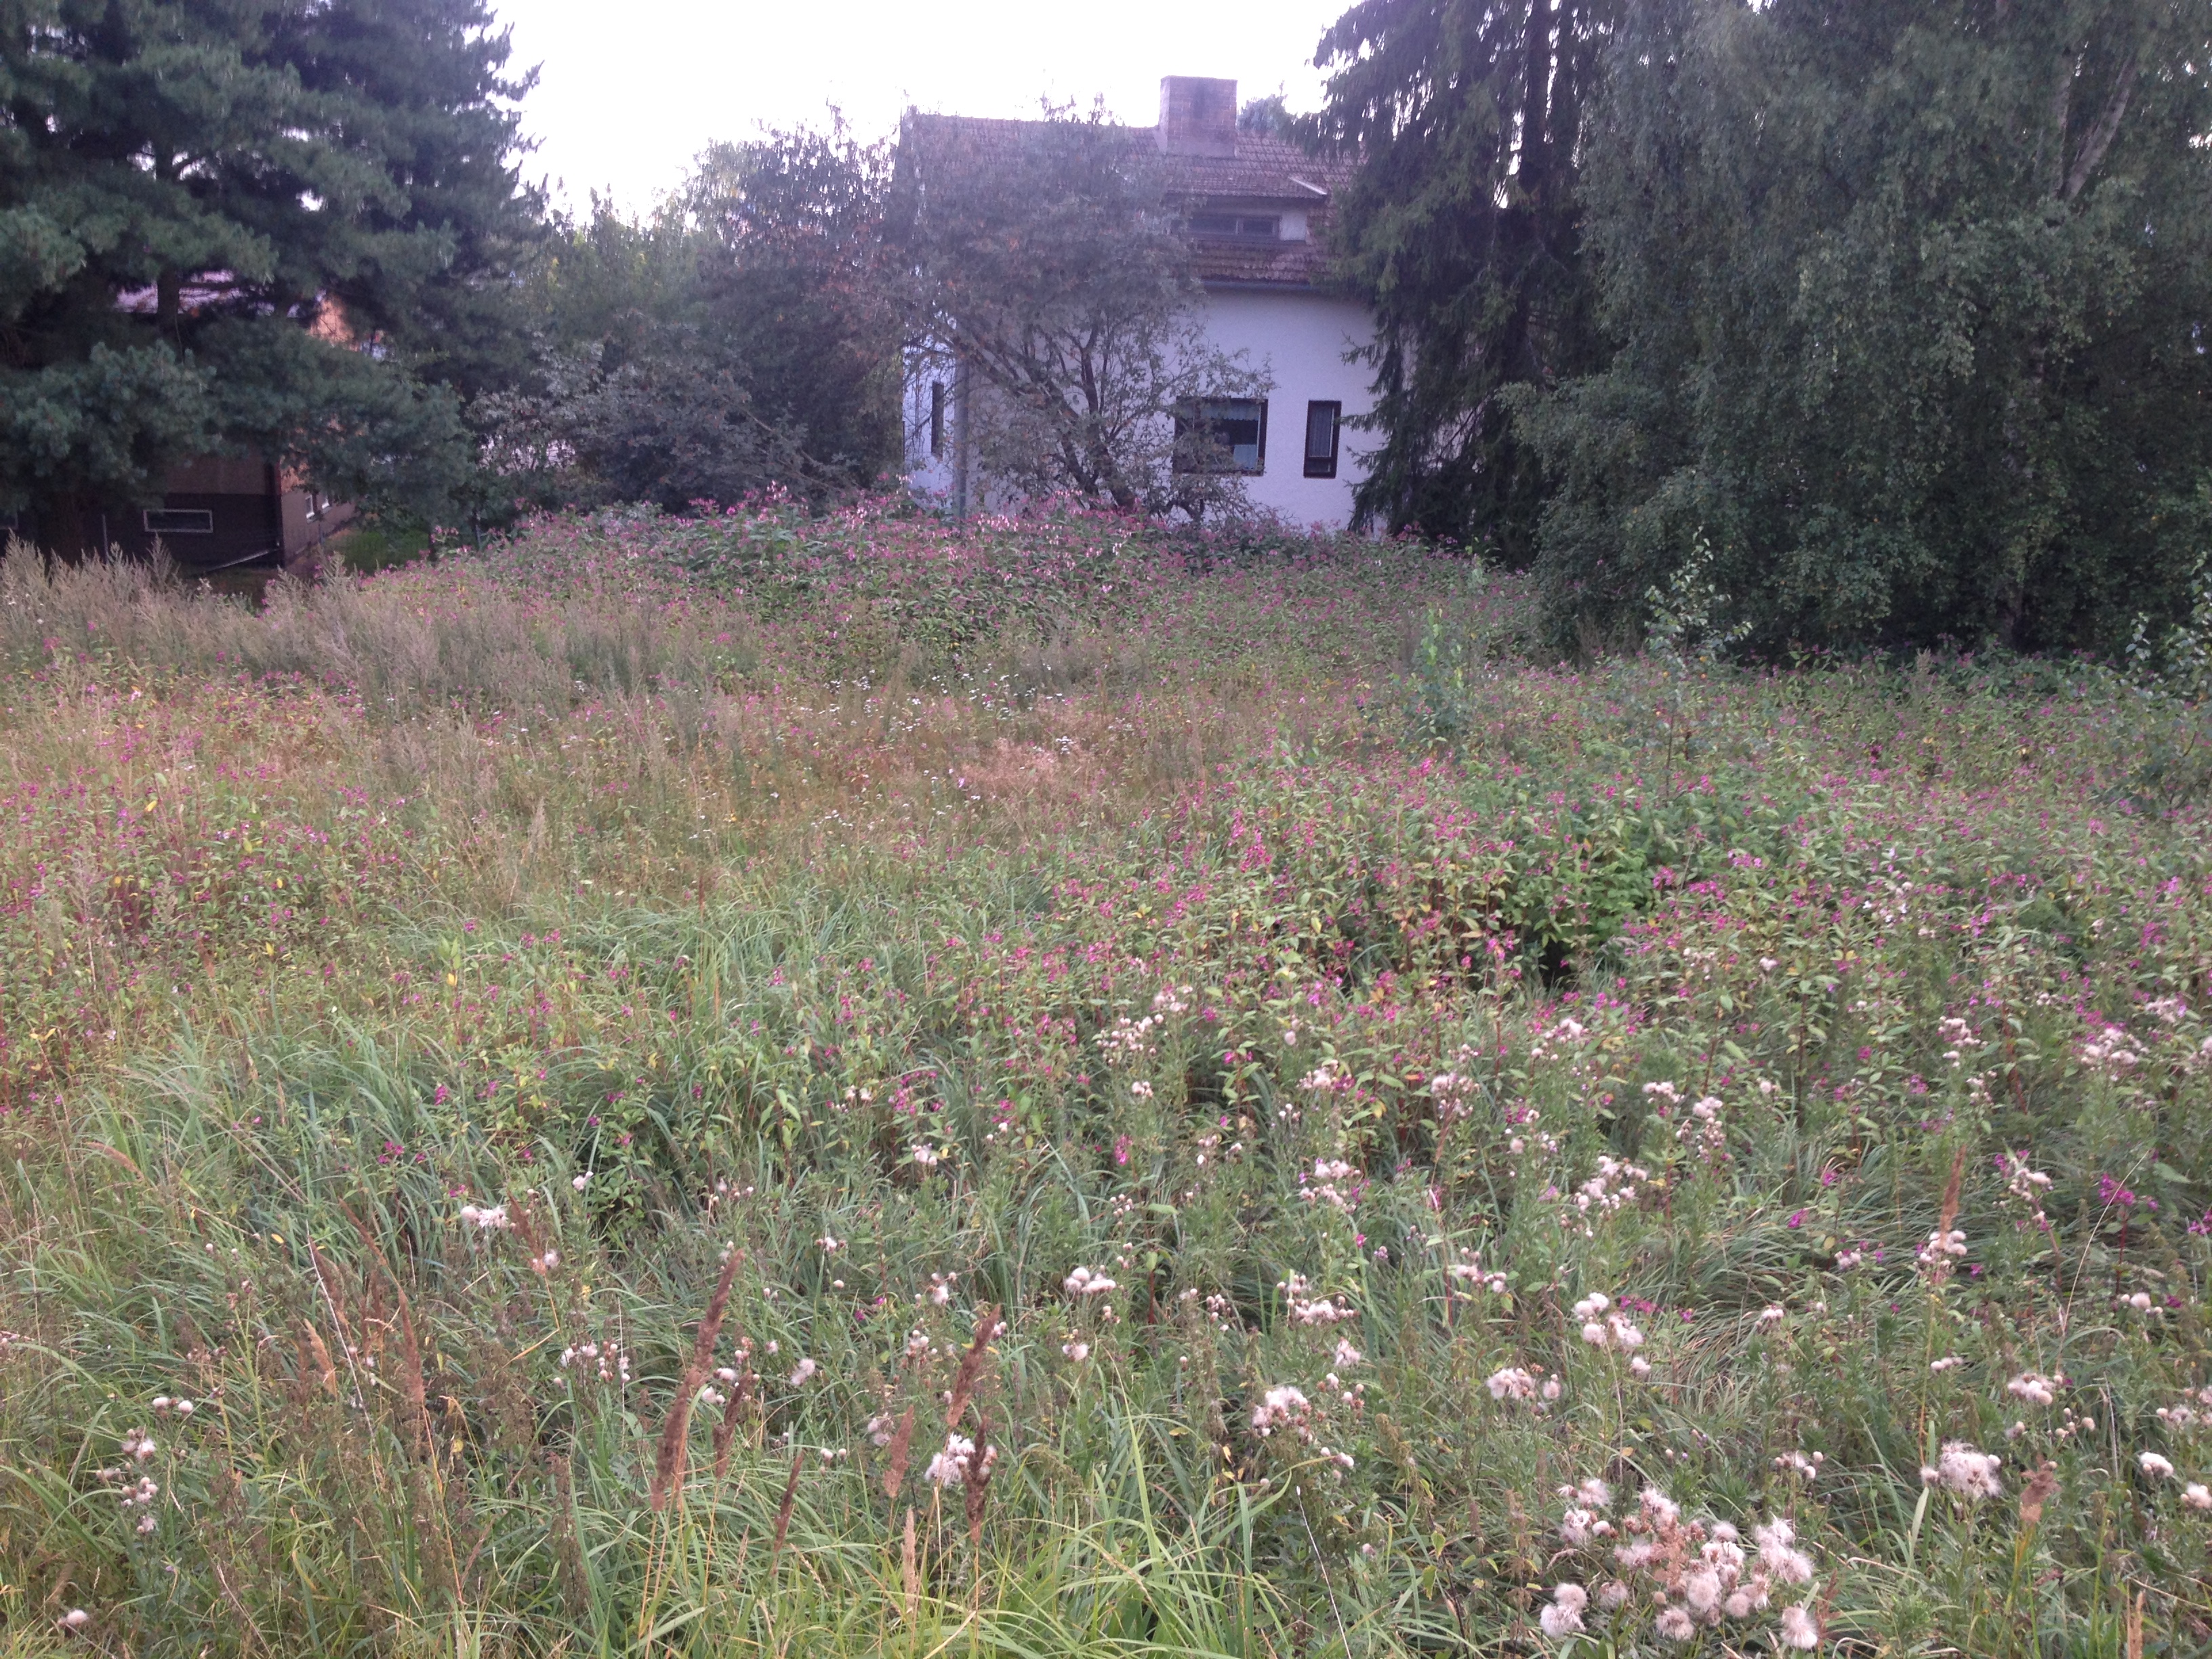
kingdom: Plantae
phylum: Tracheophyta
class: Magnoliopsida
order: Ericales
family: Balsaminaceae
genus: Impatiens
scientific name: Impatiens glandulifera
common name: Himalayan balsam
